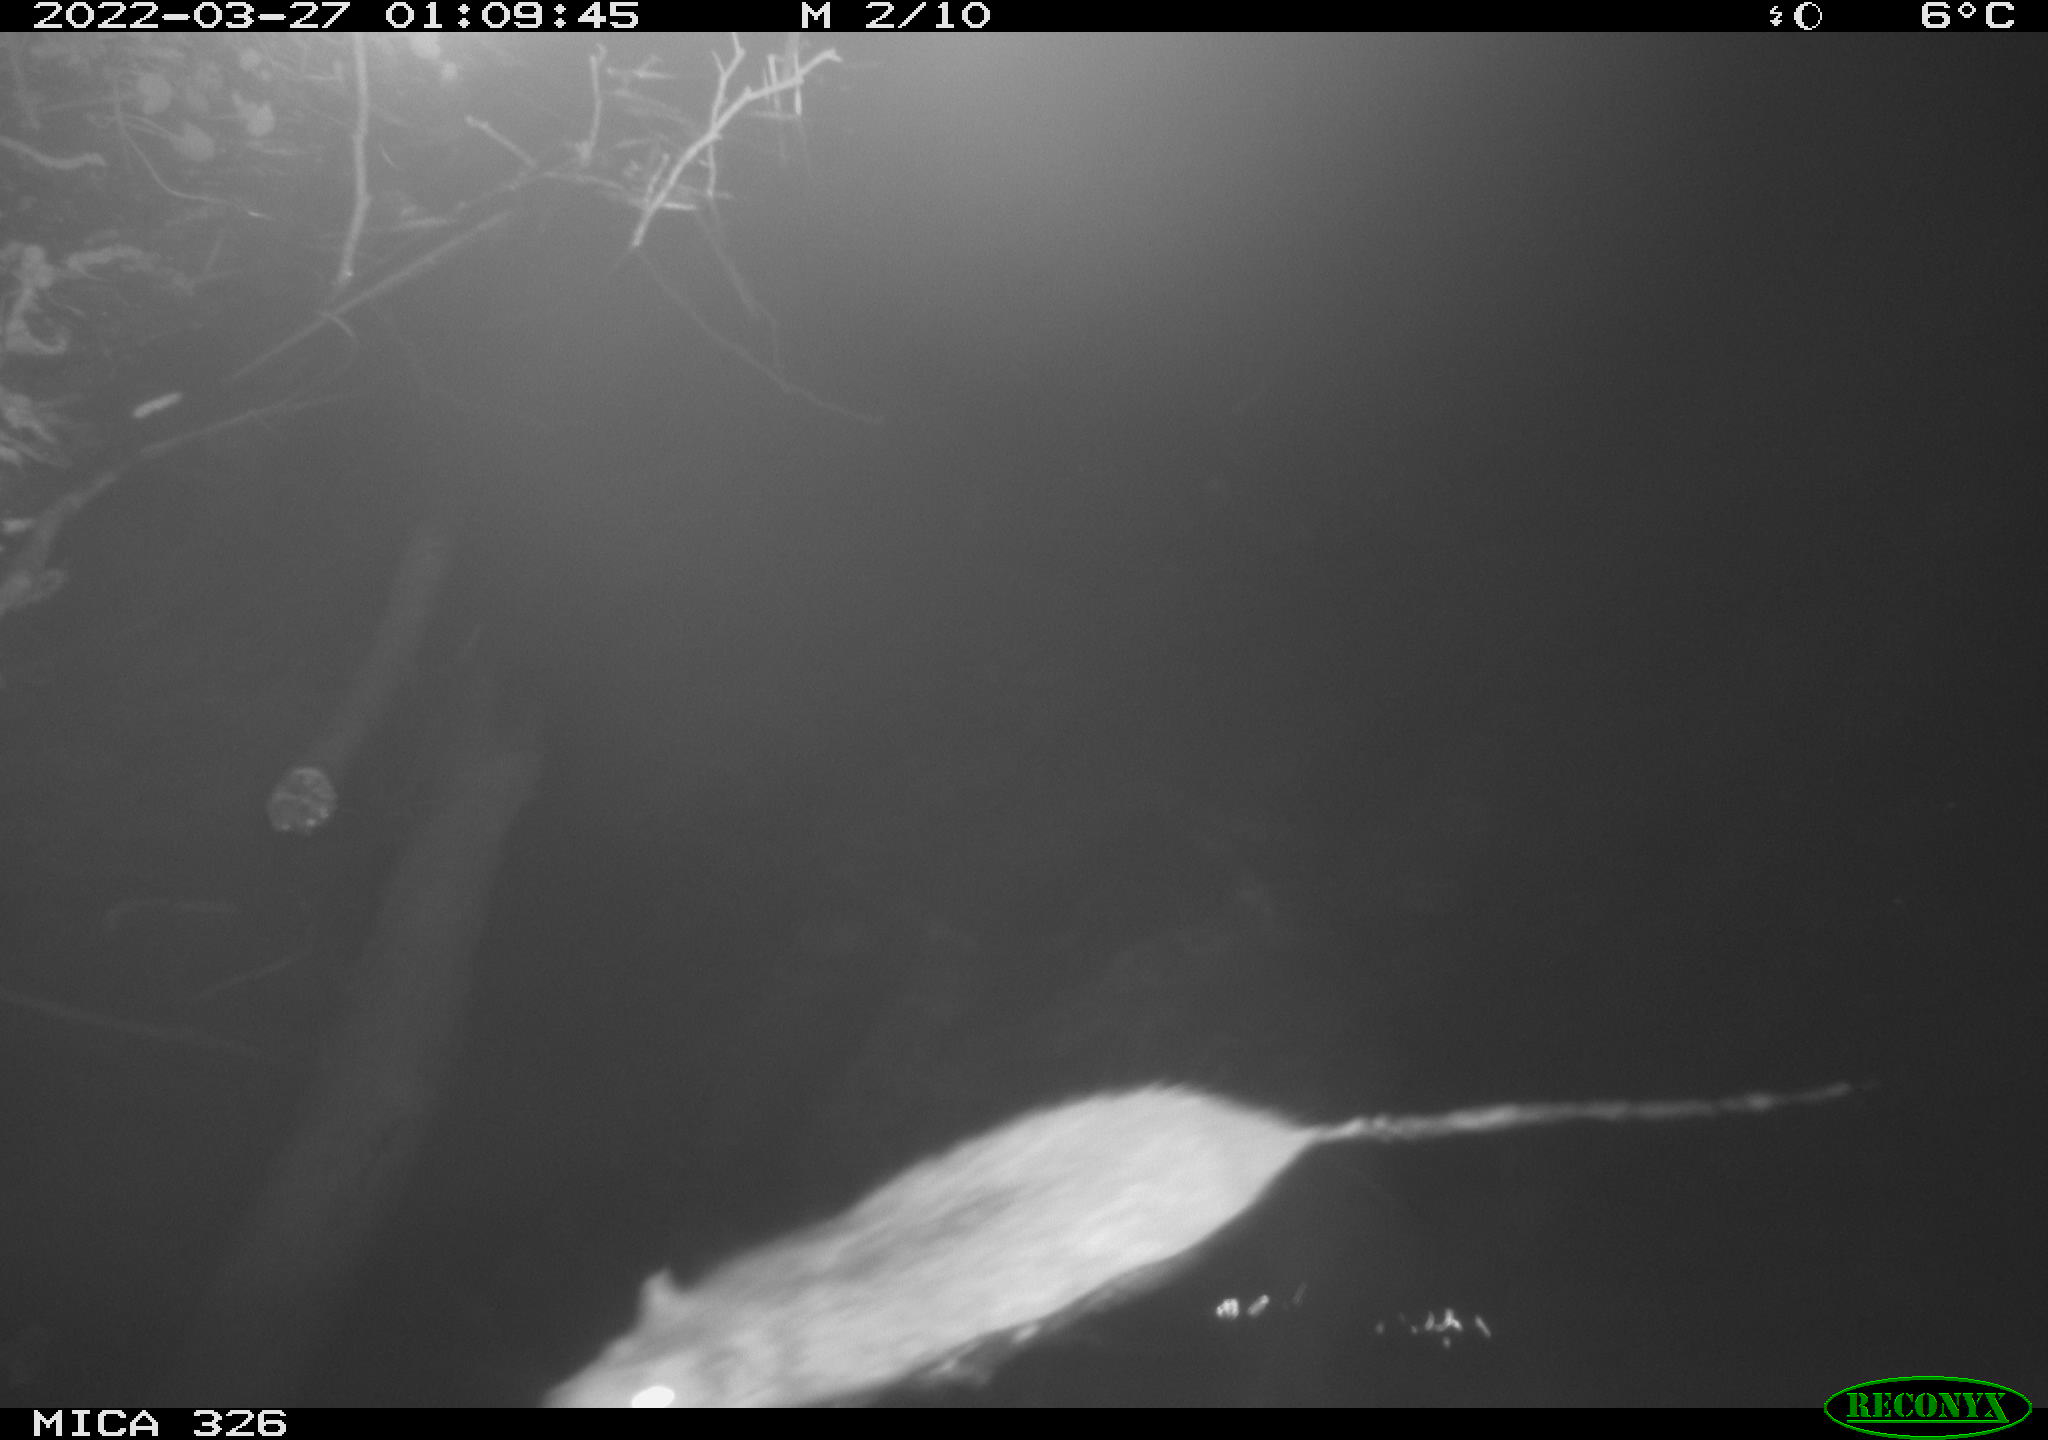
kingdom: Animalia
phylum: Chordata
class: Mammalia
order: Rodentia
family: Muridae
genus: Rattus
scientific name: Rattus norvegicus
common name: Brown rat
